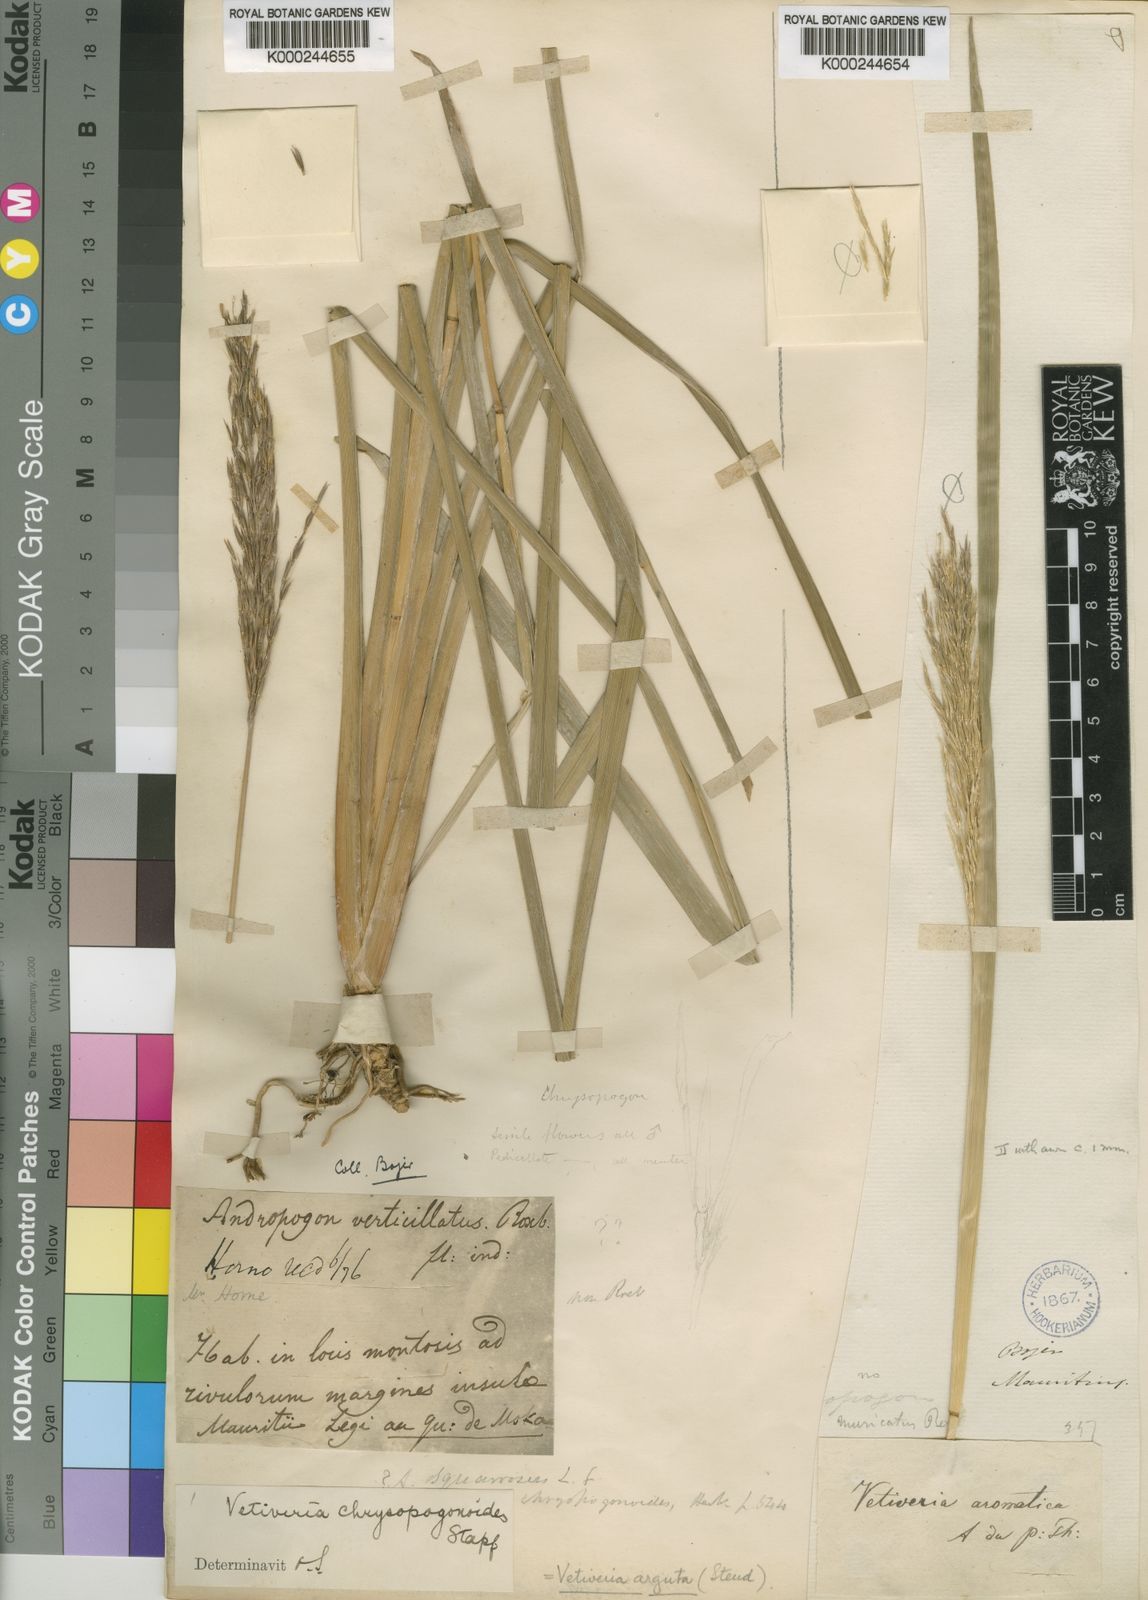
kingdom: Plantae
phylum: Tracheophyta
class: Liliopsida
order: Poales
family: Poaceae
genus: Chrysopogon
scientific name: Chrysopogon argutus
